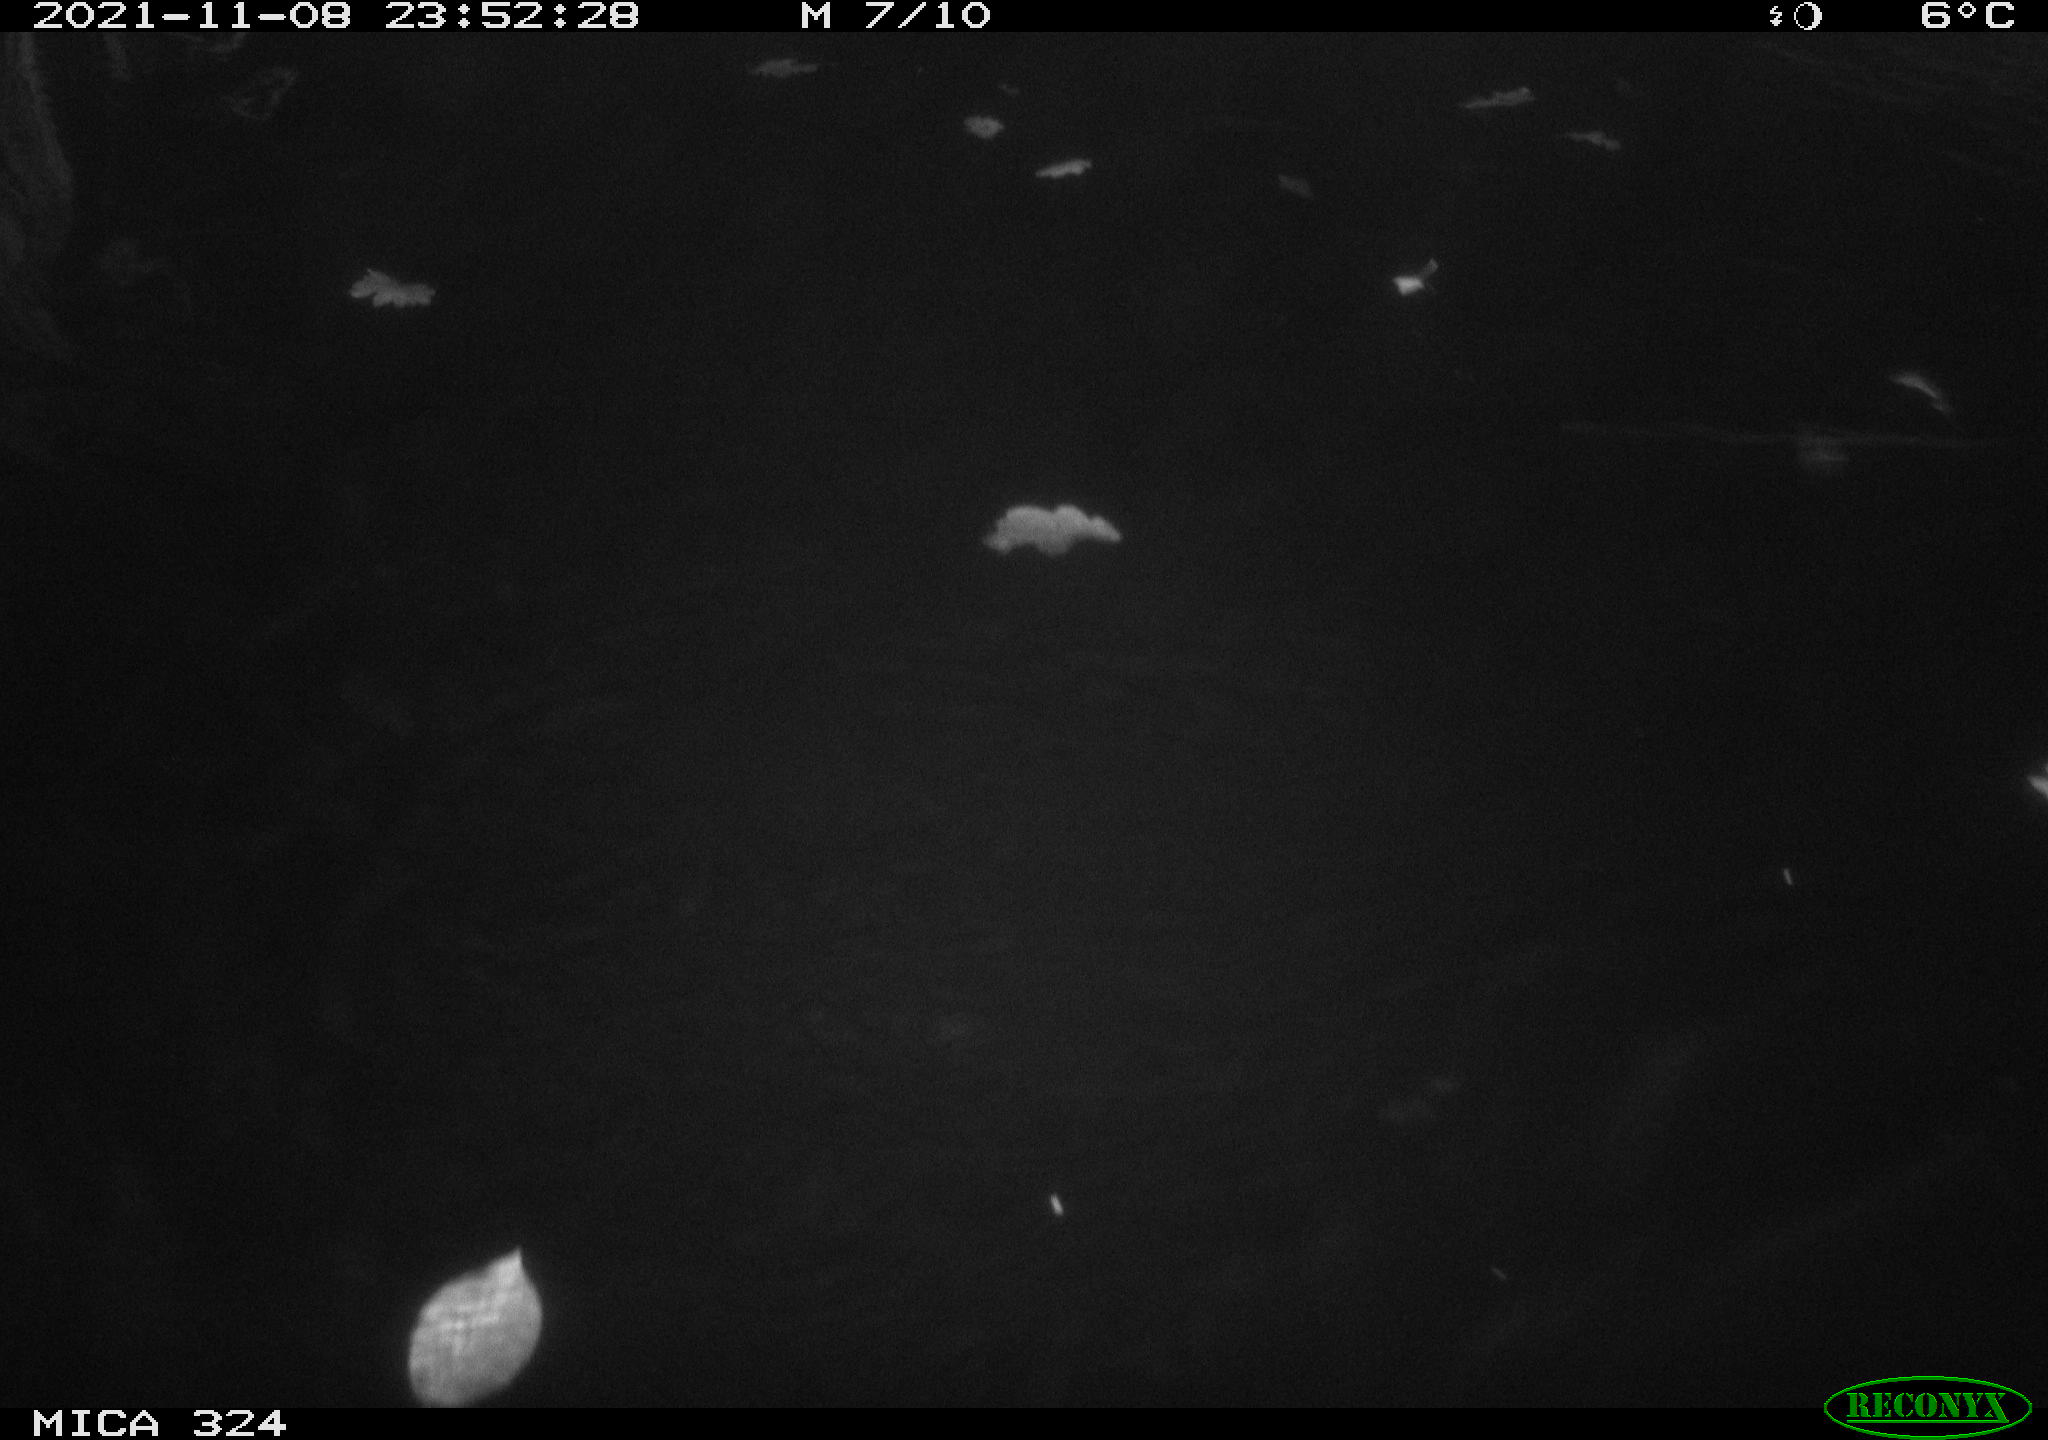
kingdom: Animalia
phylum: Chordata
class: Mammalia
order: Rodentia
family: Cricetidae
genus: Ondatra
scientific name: Ondatra zibethicus
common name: Muskrat
